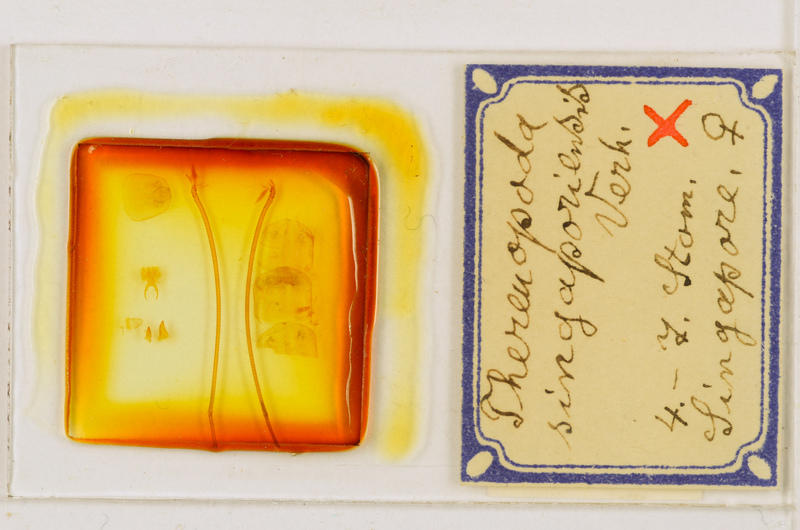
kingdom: Animalia
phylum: Arthropoda
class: Chilopoda
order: Scutigeromorpha
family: Scutigeridae
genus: Thereuopoda
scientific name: Thereuopoda longicornis
